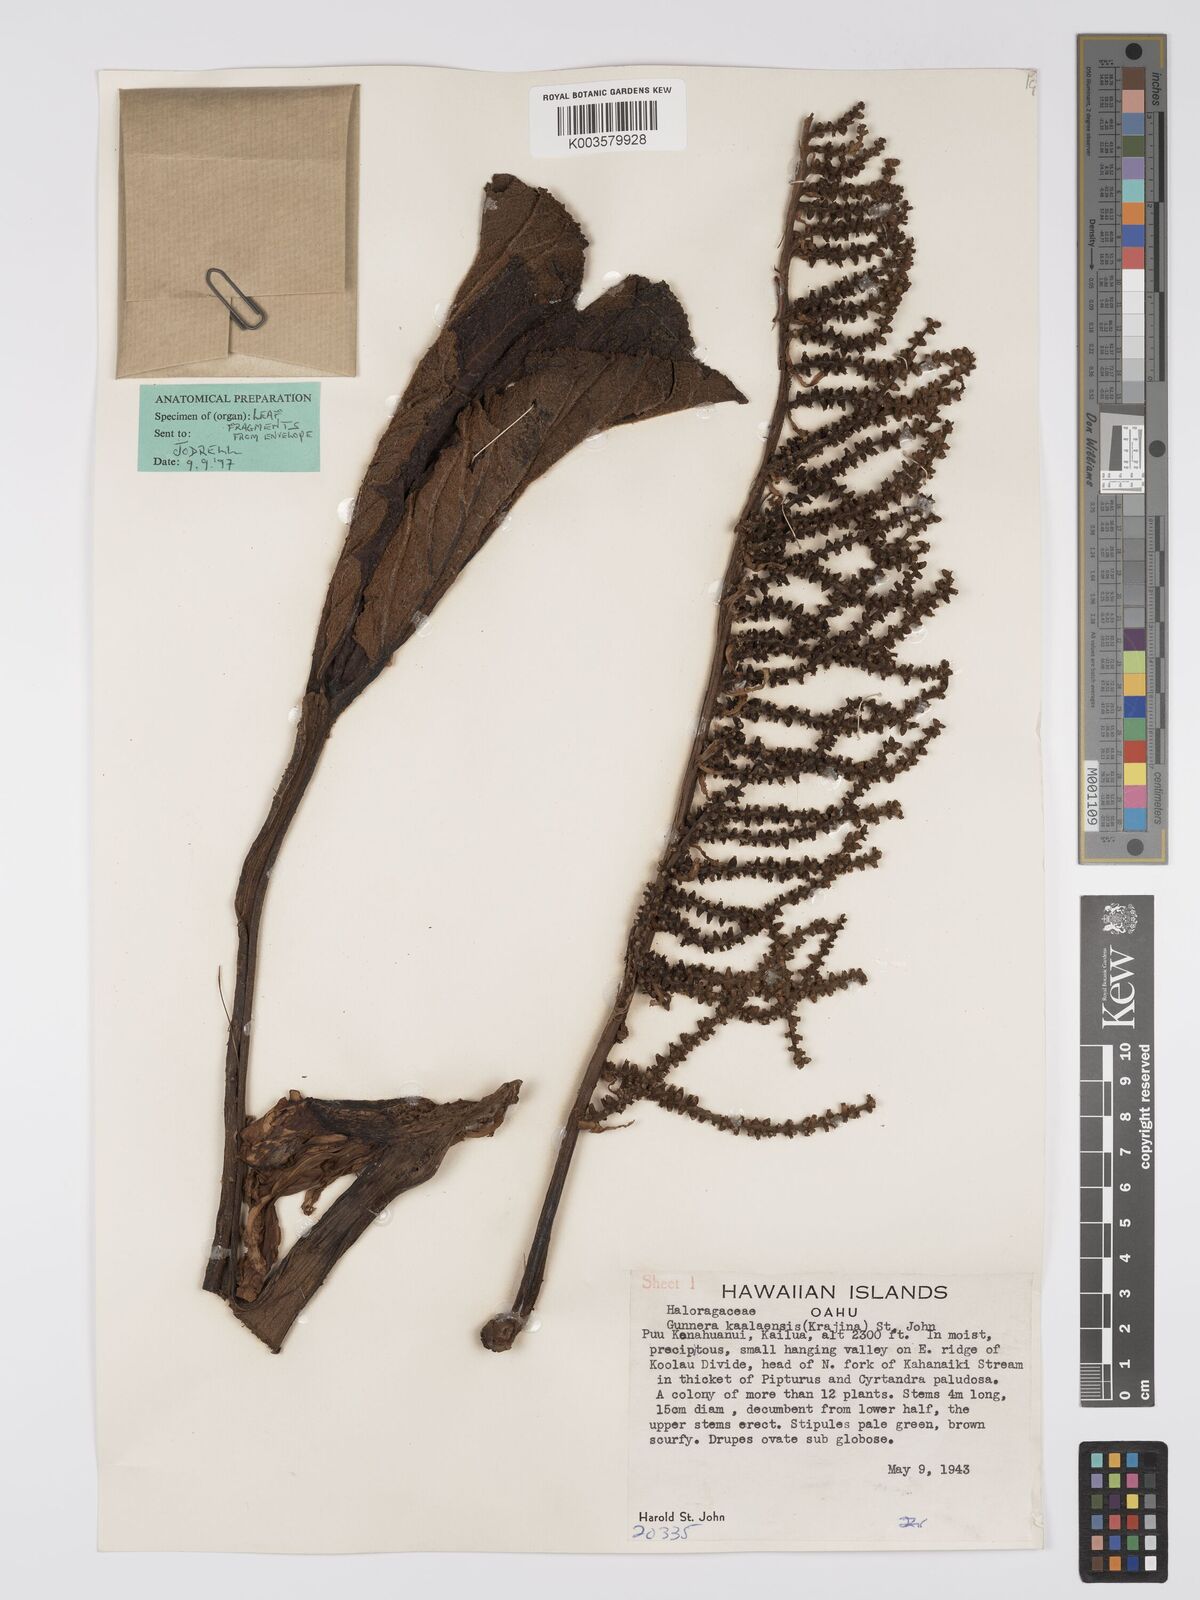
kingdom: Plantae
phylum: Tracheophyta
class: Magnoliopsida
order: Gunnerales
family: Gunneraceae
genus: Gunnera
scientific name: Gunnera petaloidea
